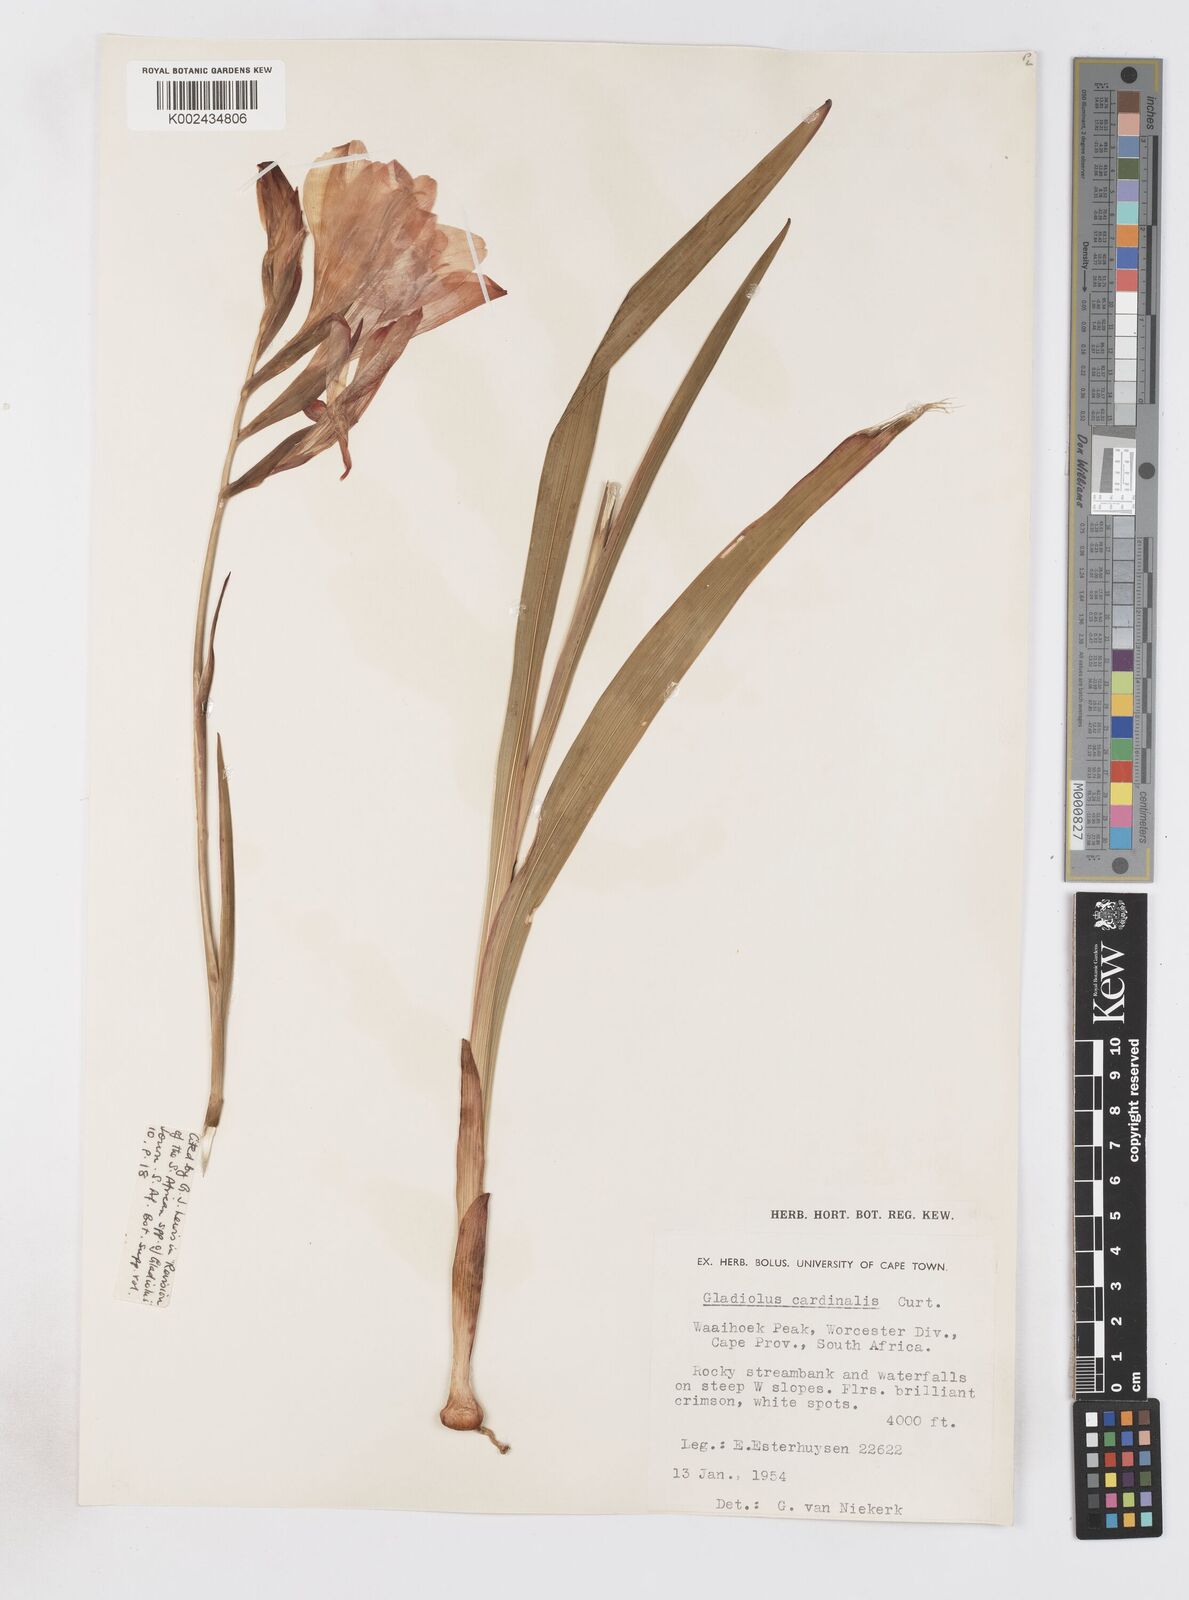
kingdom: Plantae
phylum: Tracheophyta
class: Liliopsida
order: Asparagales
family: Iridaceae
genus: Gladiolus
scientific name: Gladiolus cardinalis
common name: New year-lily
